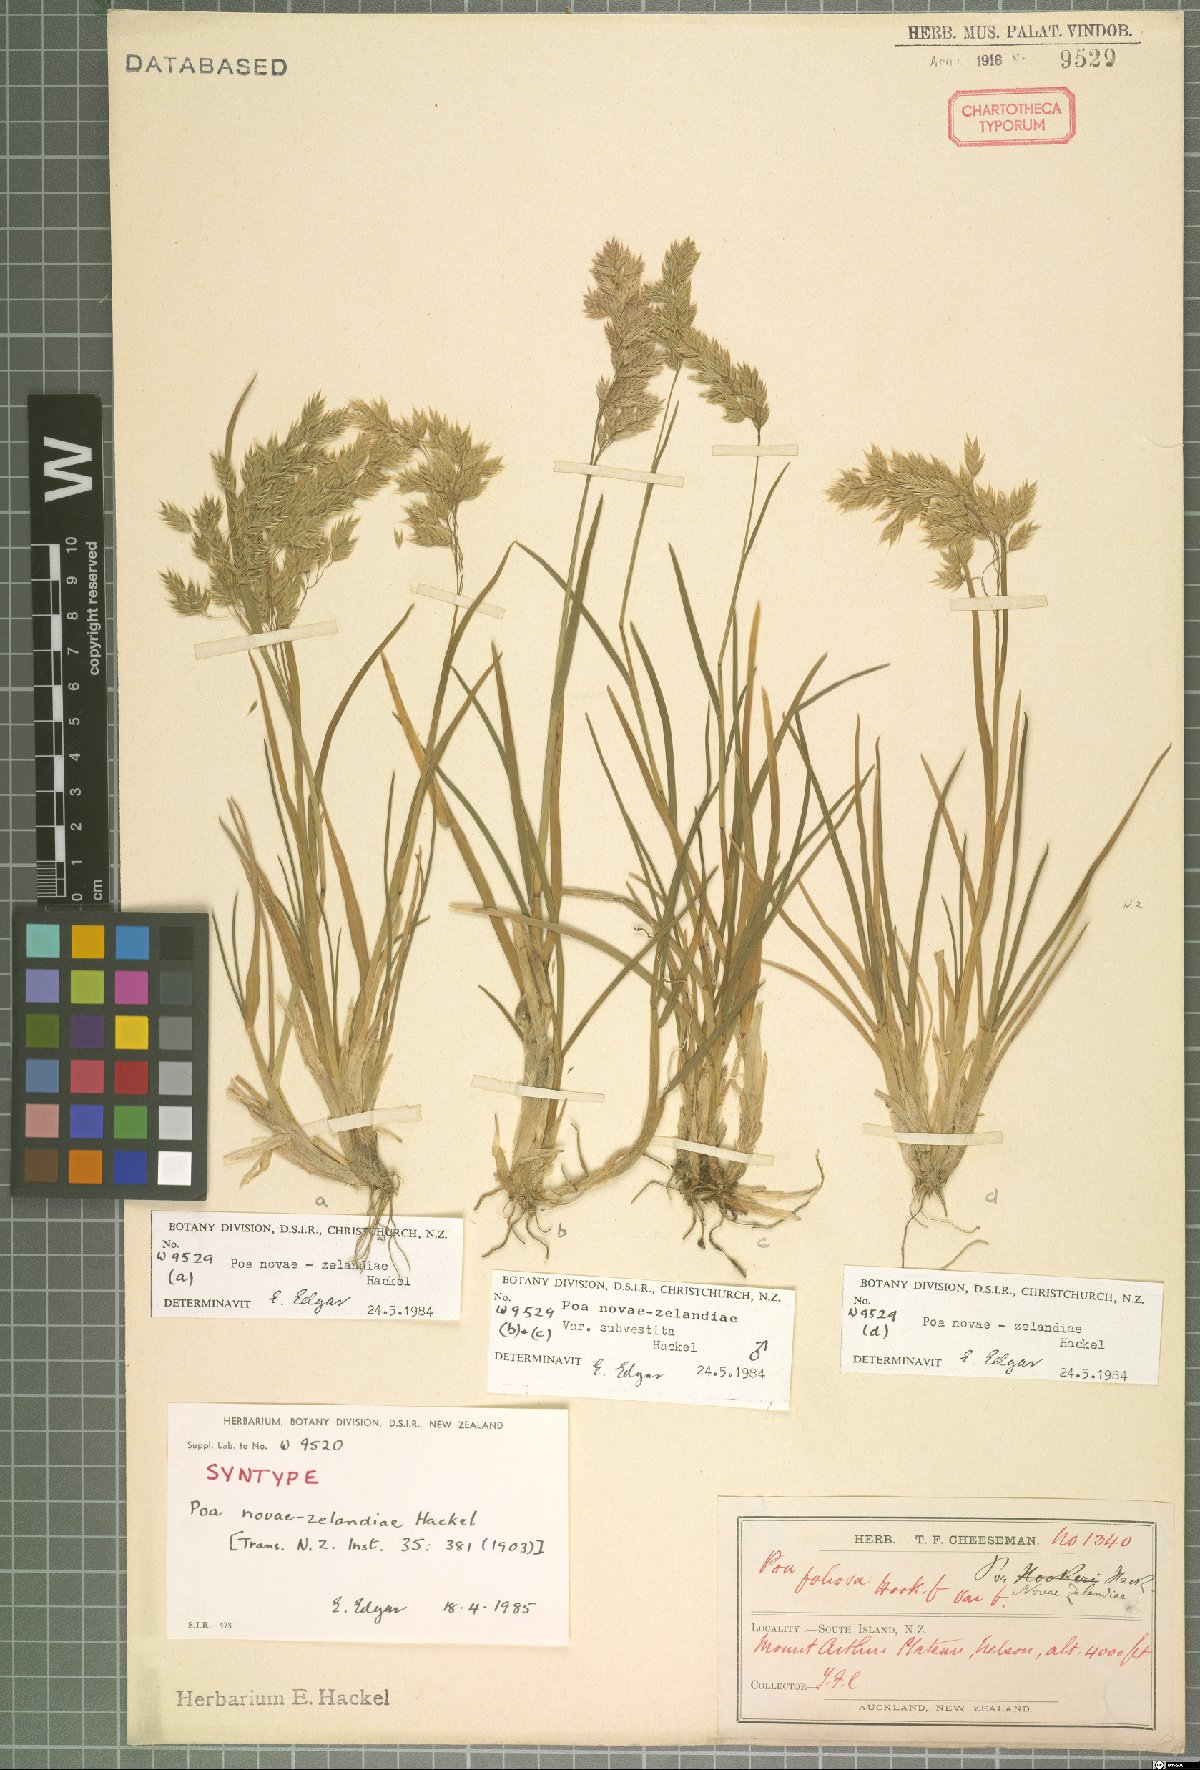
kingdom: Plantae
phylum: Tracheophyta
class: Liliopsida
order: Poales
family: Poaceae
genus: Poa
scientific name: Poa novae-zelandiae
